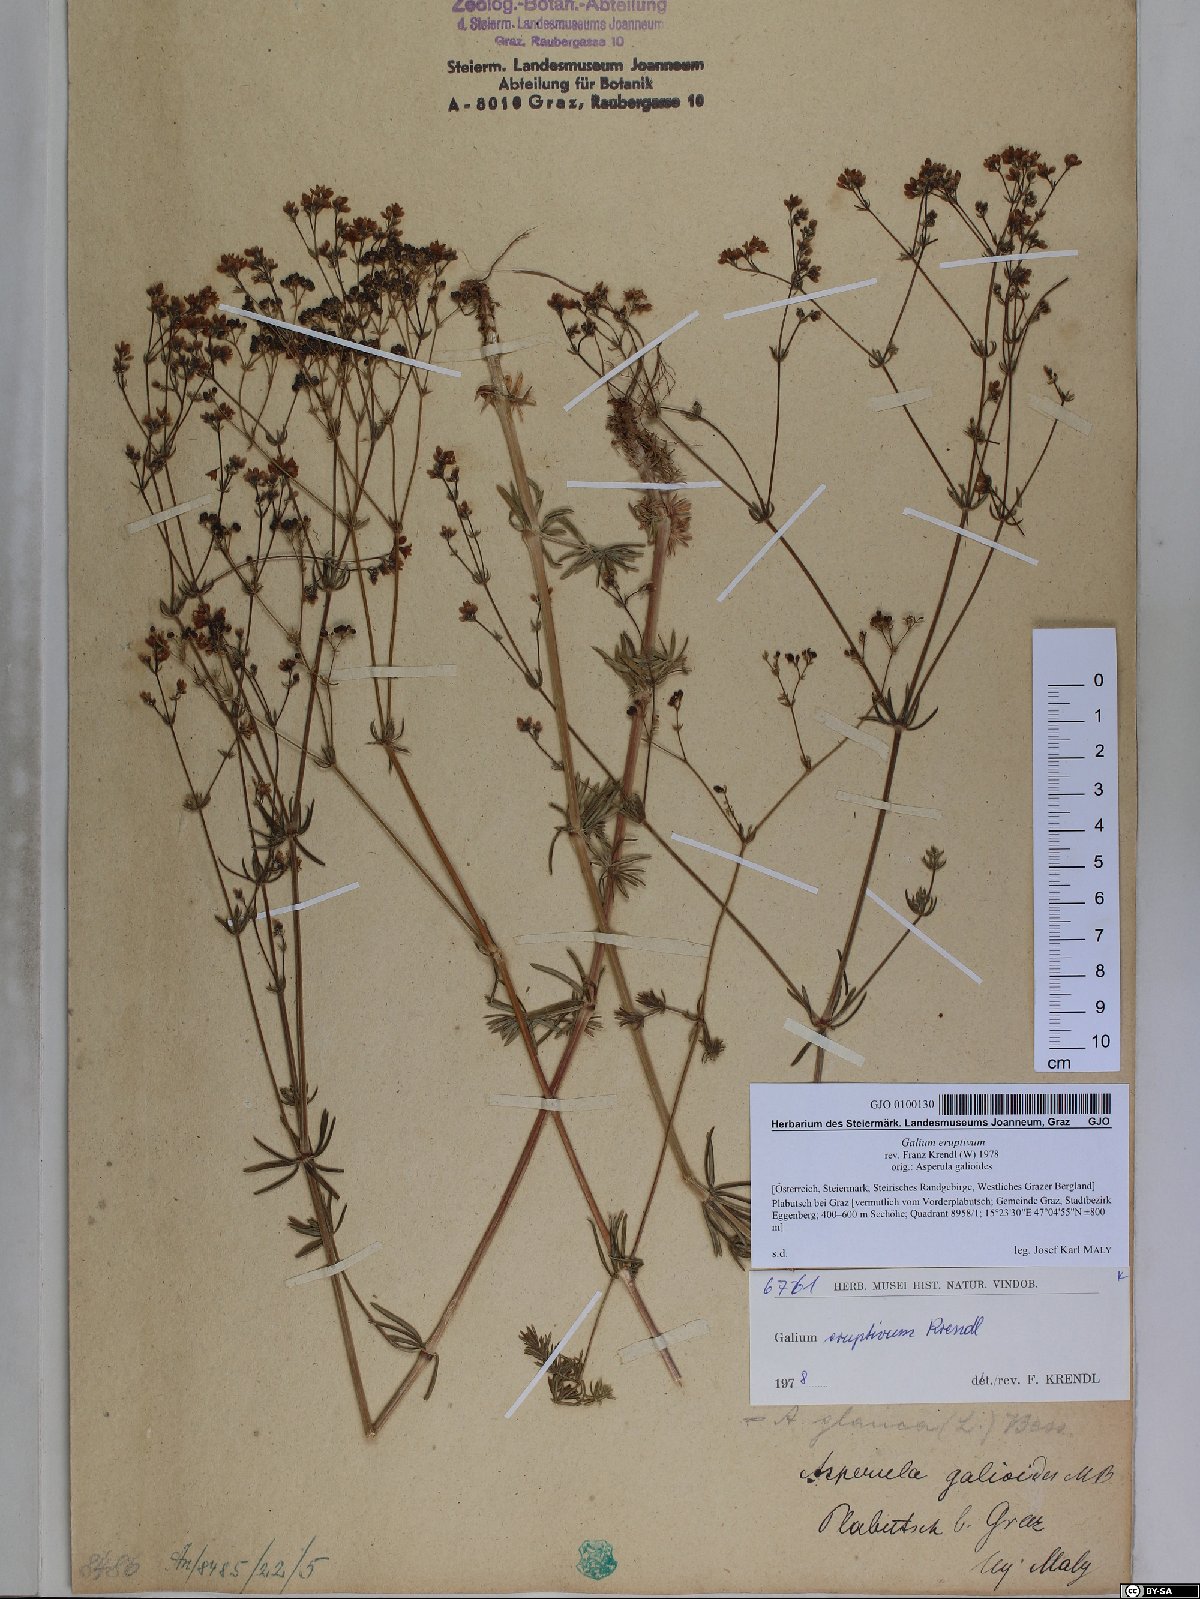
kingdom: Plantae
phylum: Tracheophyta
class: Magnoliopsida
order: Gentianales
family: Rubiaceae
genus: Galium
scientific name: Galium eruptivum
